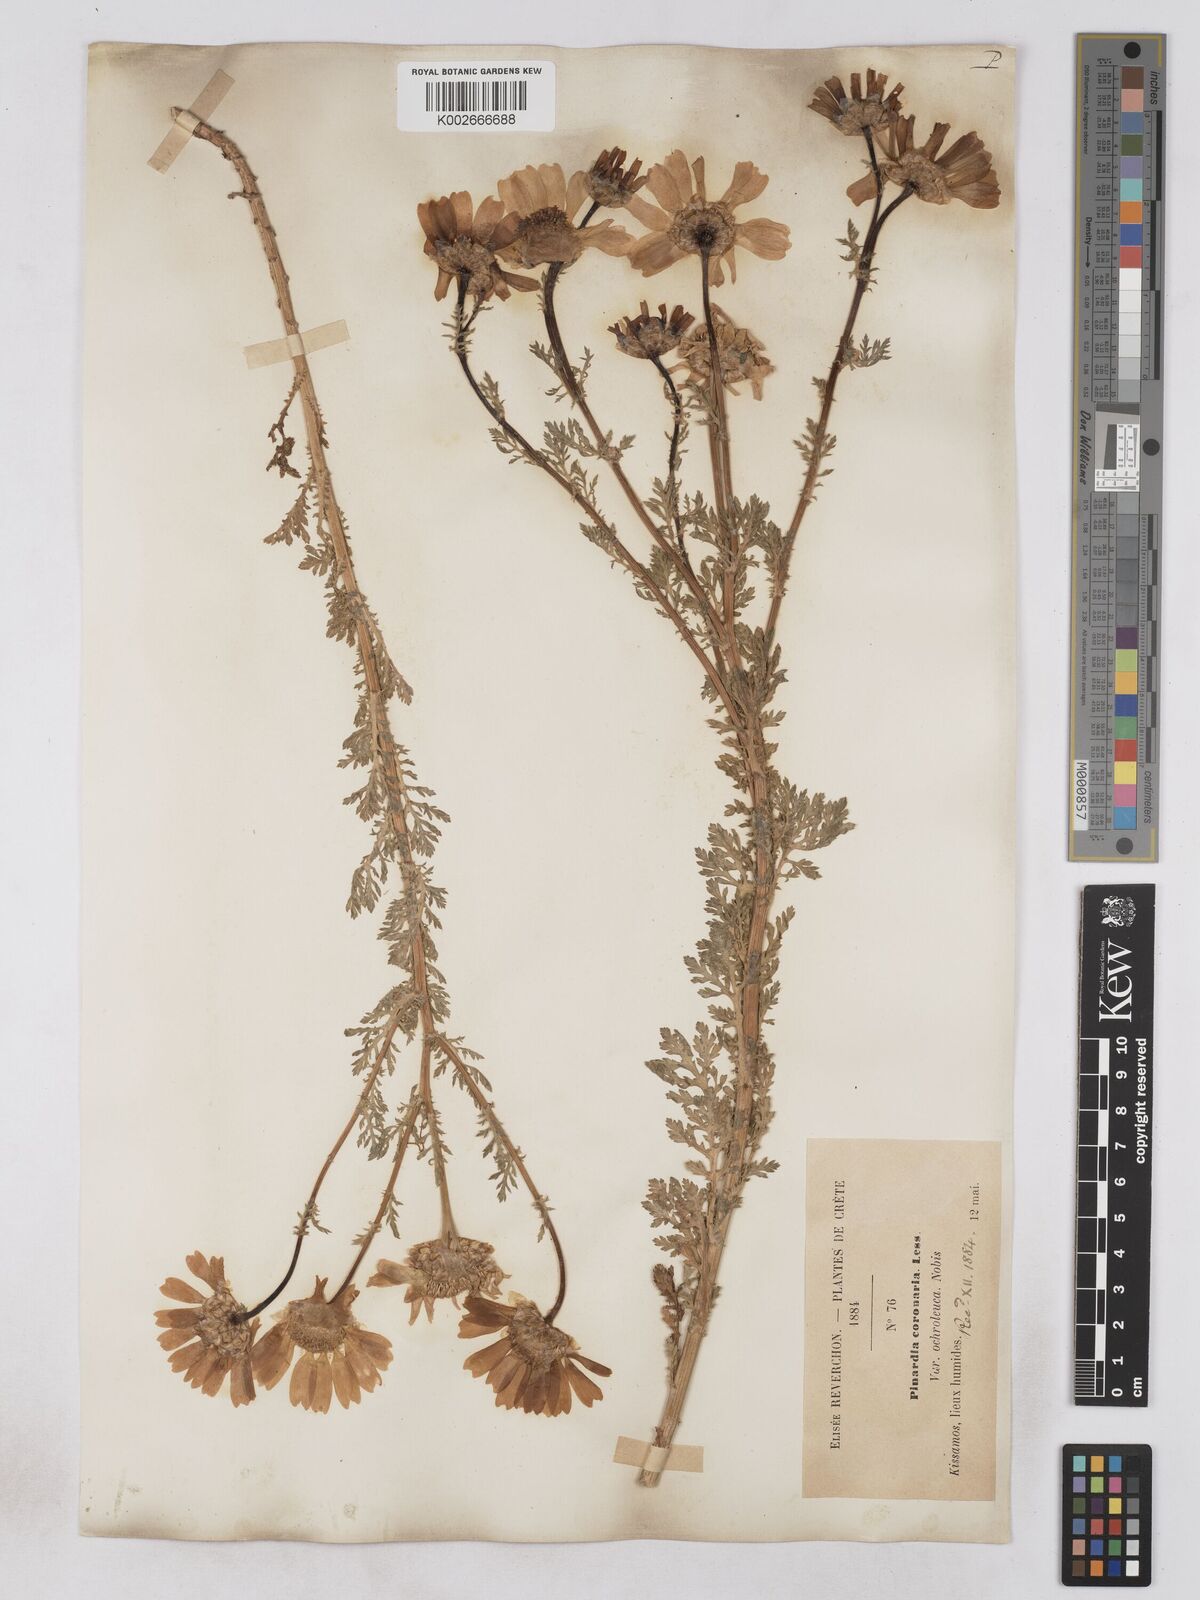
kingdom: Plantae
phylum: Tracheophyta
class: Magnoliopsida
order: Asterales
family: Asteraceae
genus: Glebionis
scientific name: Glebionis coronaria
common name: Crowndaisy
